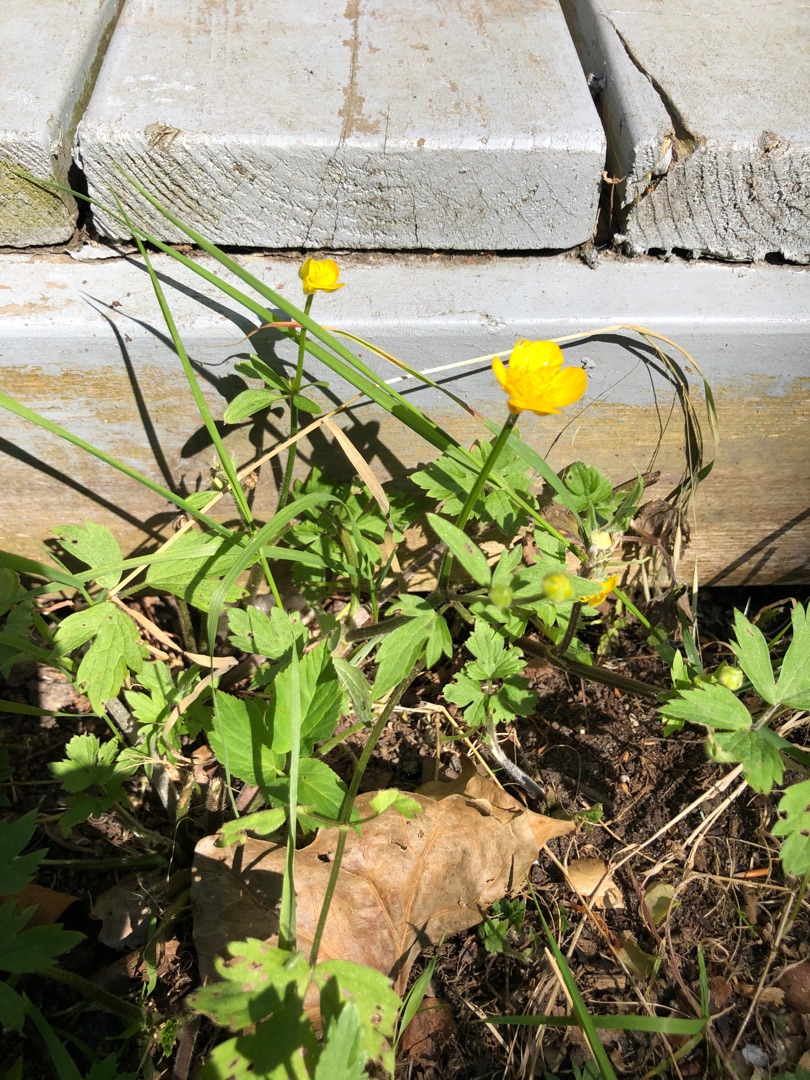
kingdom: Plantae
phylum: Tracheophyta
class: Magnoliopsida
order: Ranunculales
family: Ranunculaceae
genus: Ranunculus
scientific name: Ranunculus repens
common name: Lav ranunkel
